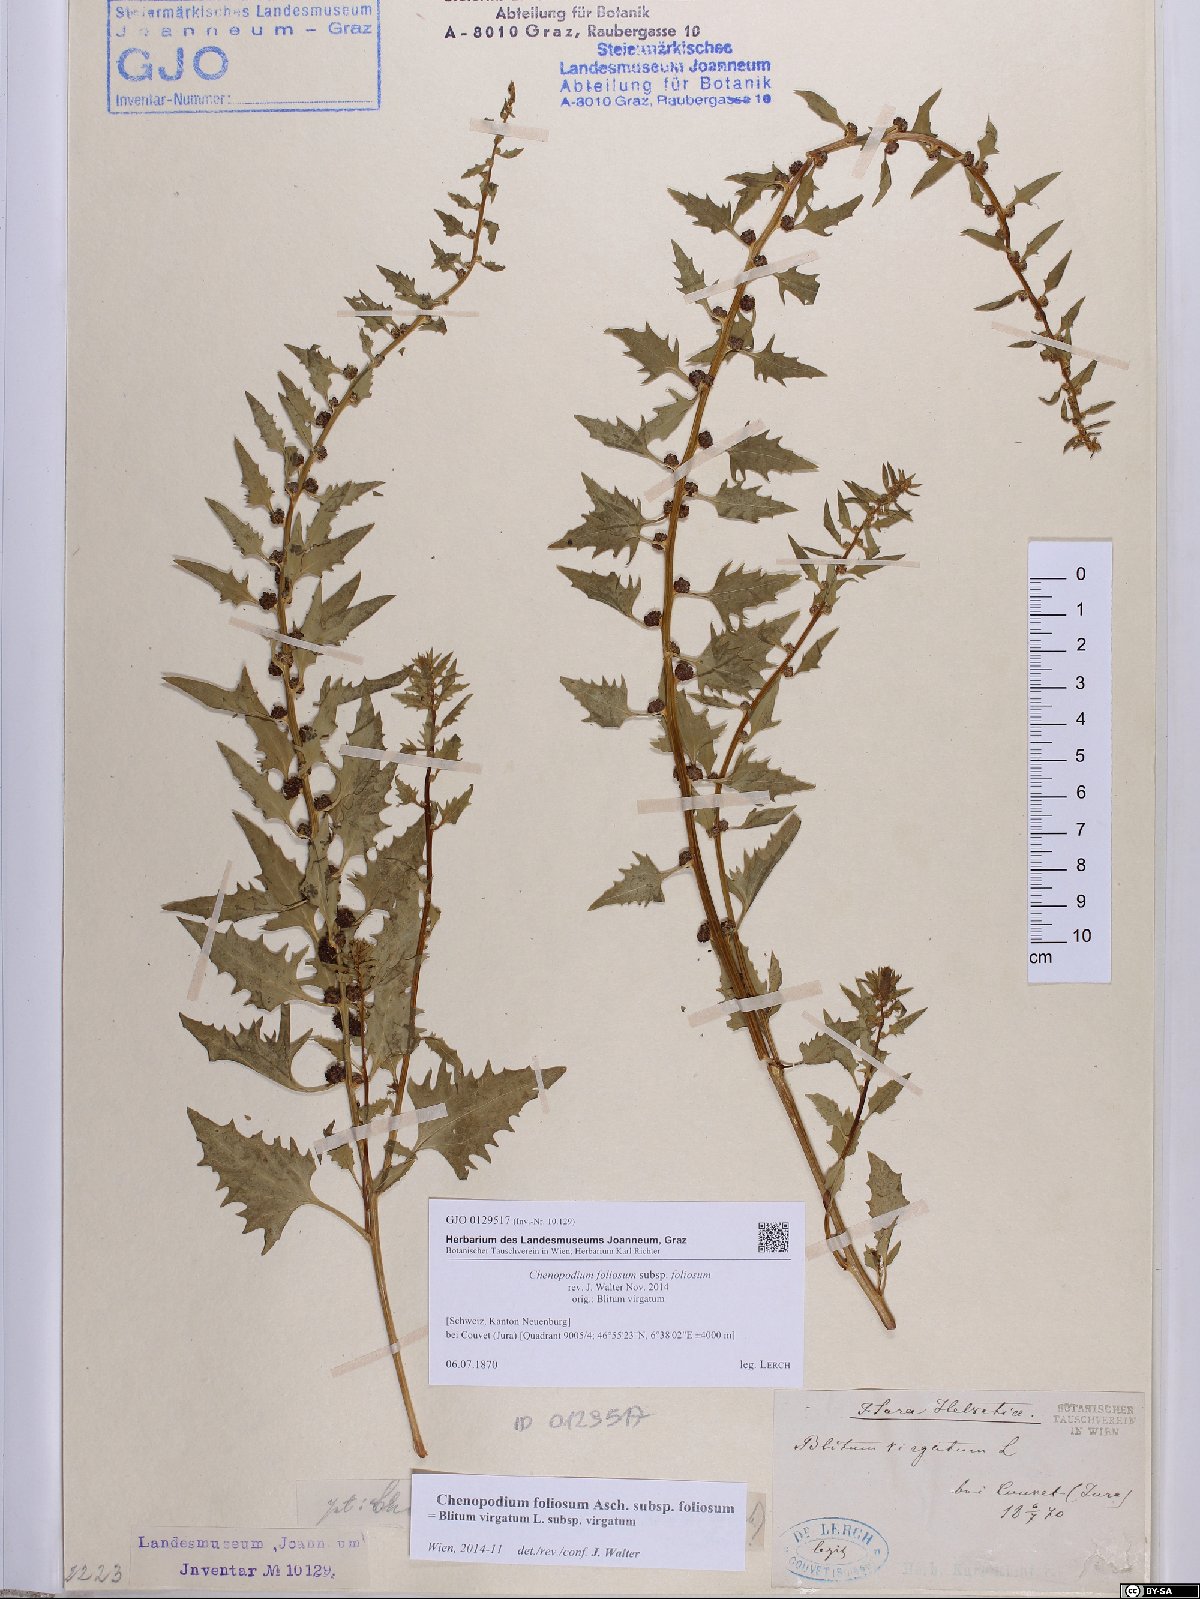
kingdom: Plantae
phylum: Tracheophyta
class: Magnoliopsida
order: Caryophyllales
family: Amaranthaceae
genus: Blitum
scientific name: Blitum virgatum
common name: Strawberry goosefoot
